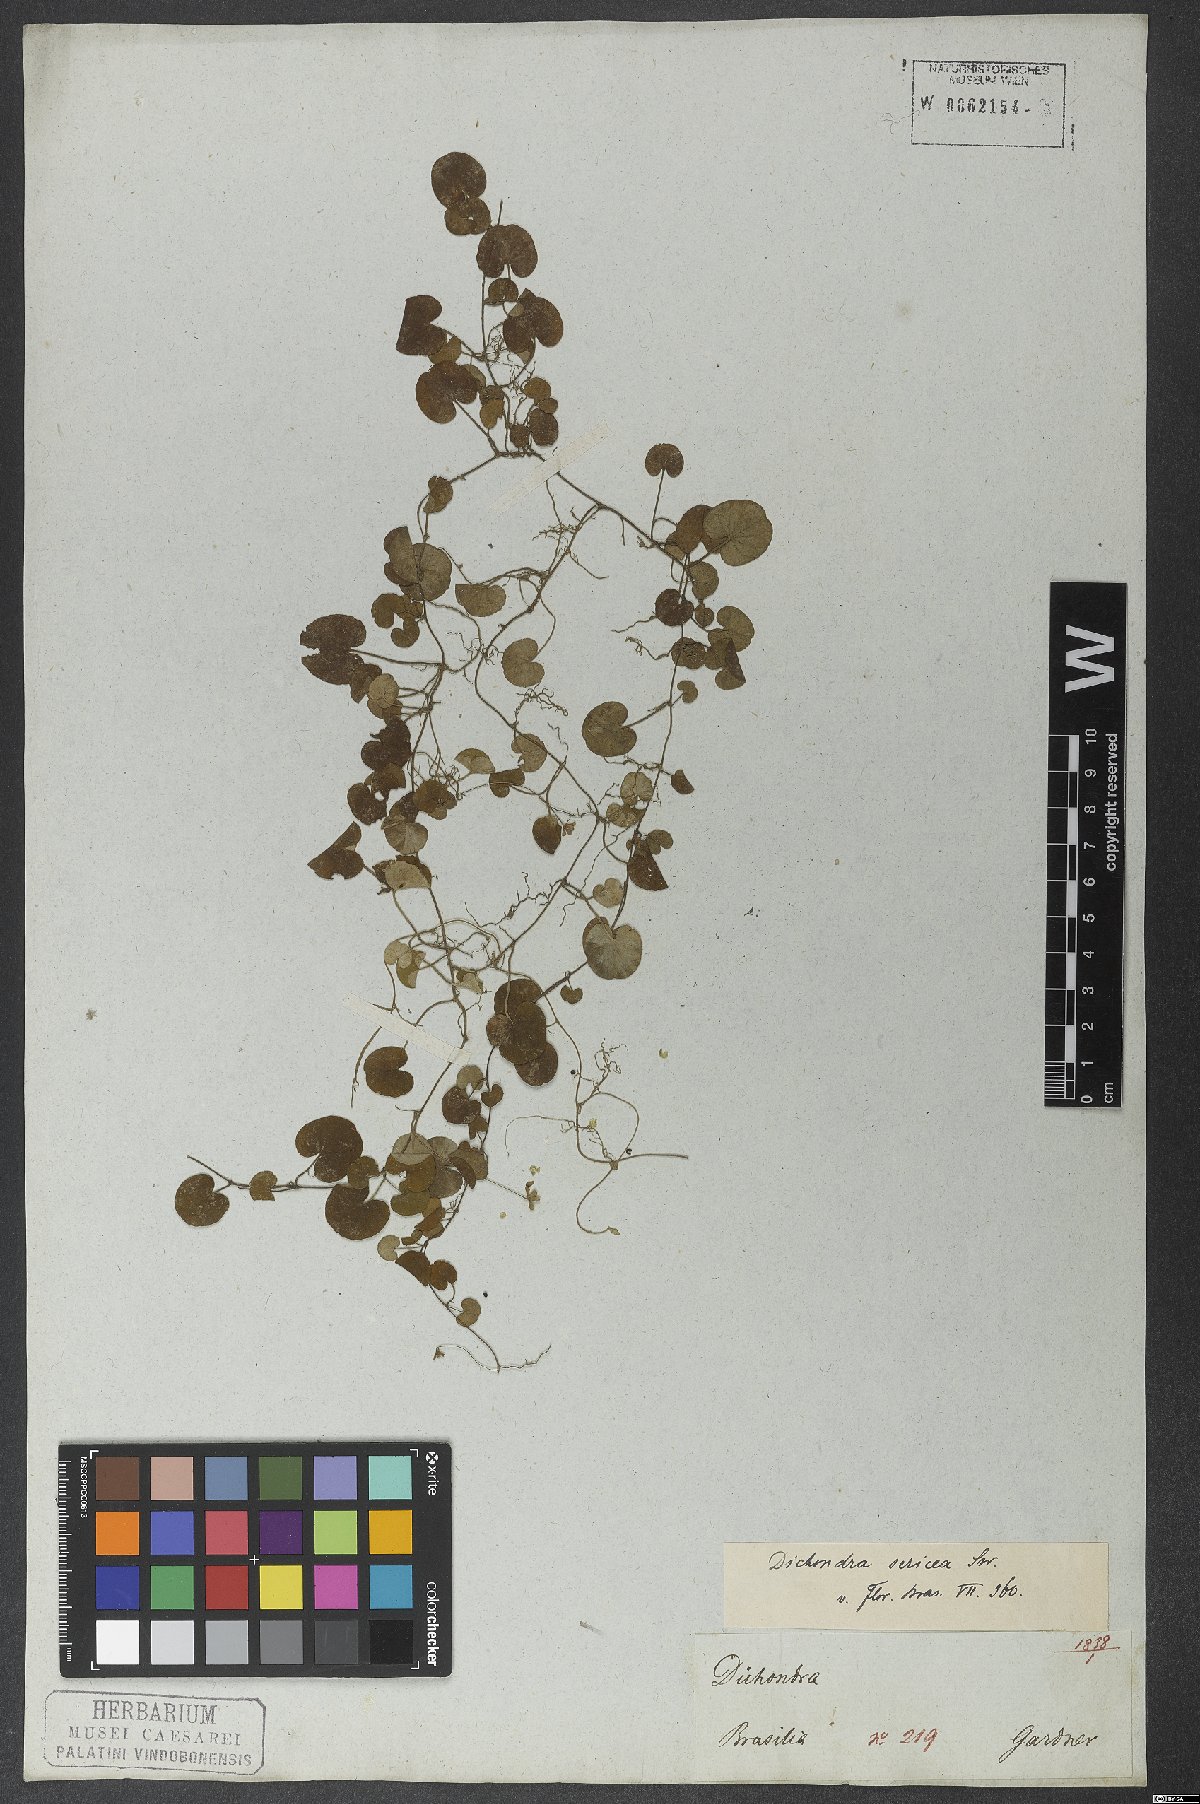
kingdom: Plantae
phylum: Tracheophyta
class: Magnoliopsida
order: Solanales
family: Convolvulaceae
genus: Dichondra
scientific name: Dichondra sericea
